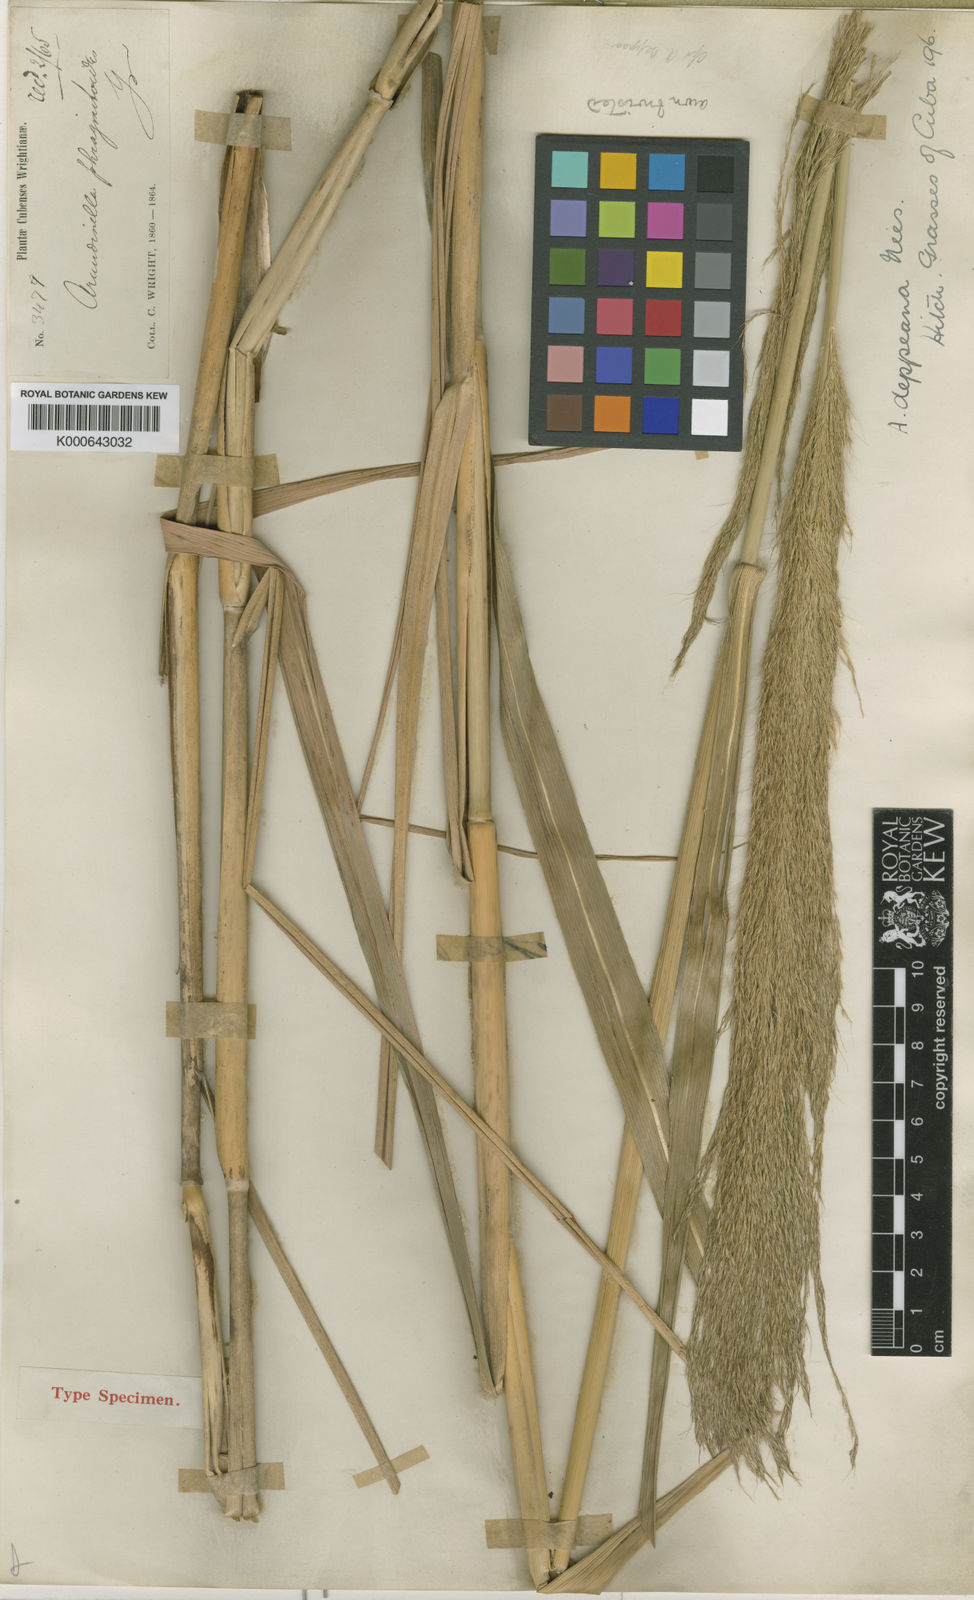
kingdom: Plantae
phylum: Tracheophyta
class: Liliopsida
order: Poales
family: Poaceae
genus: Arundinella
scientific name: Arundinella
